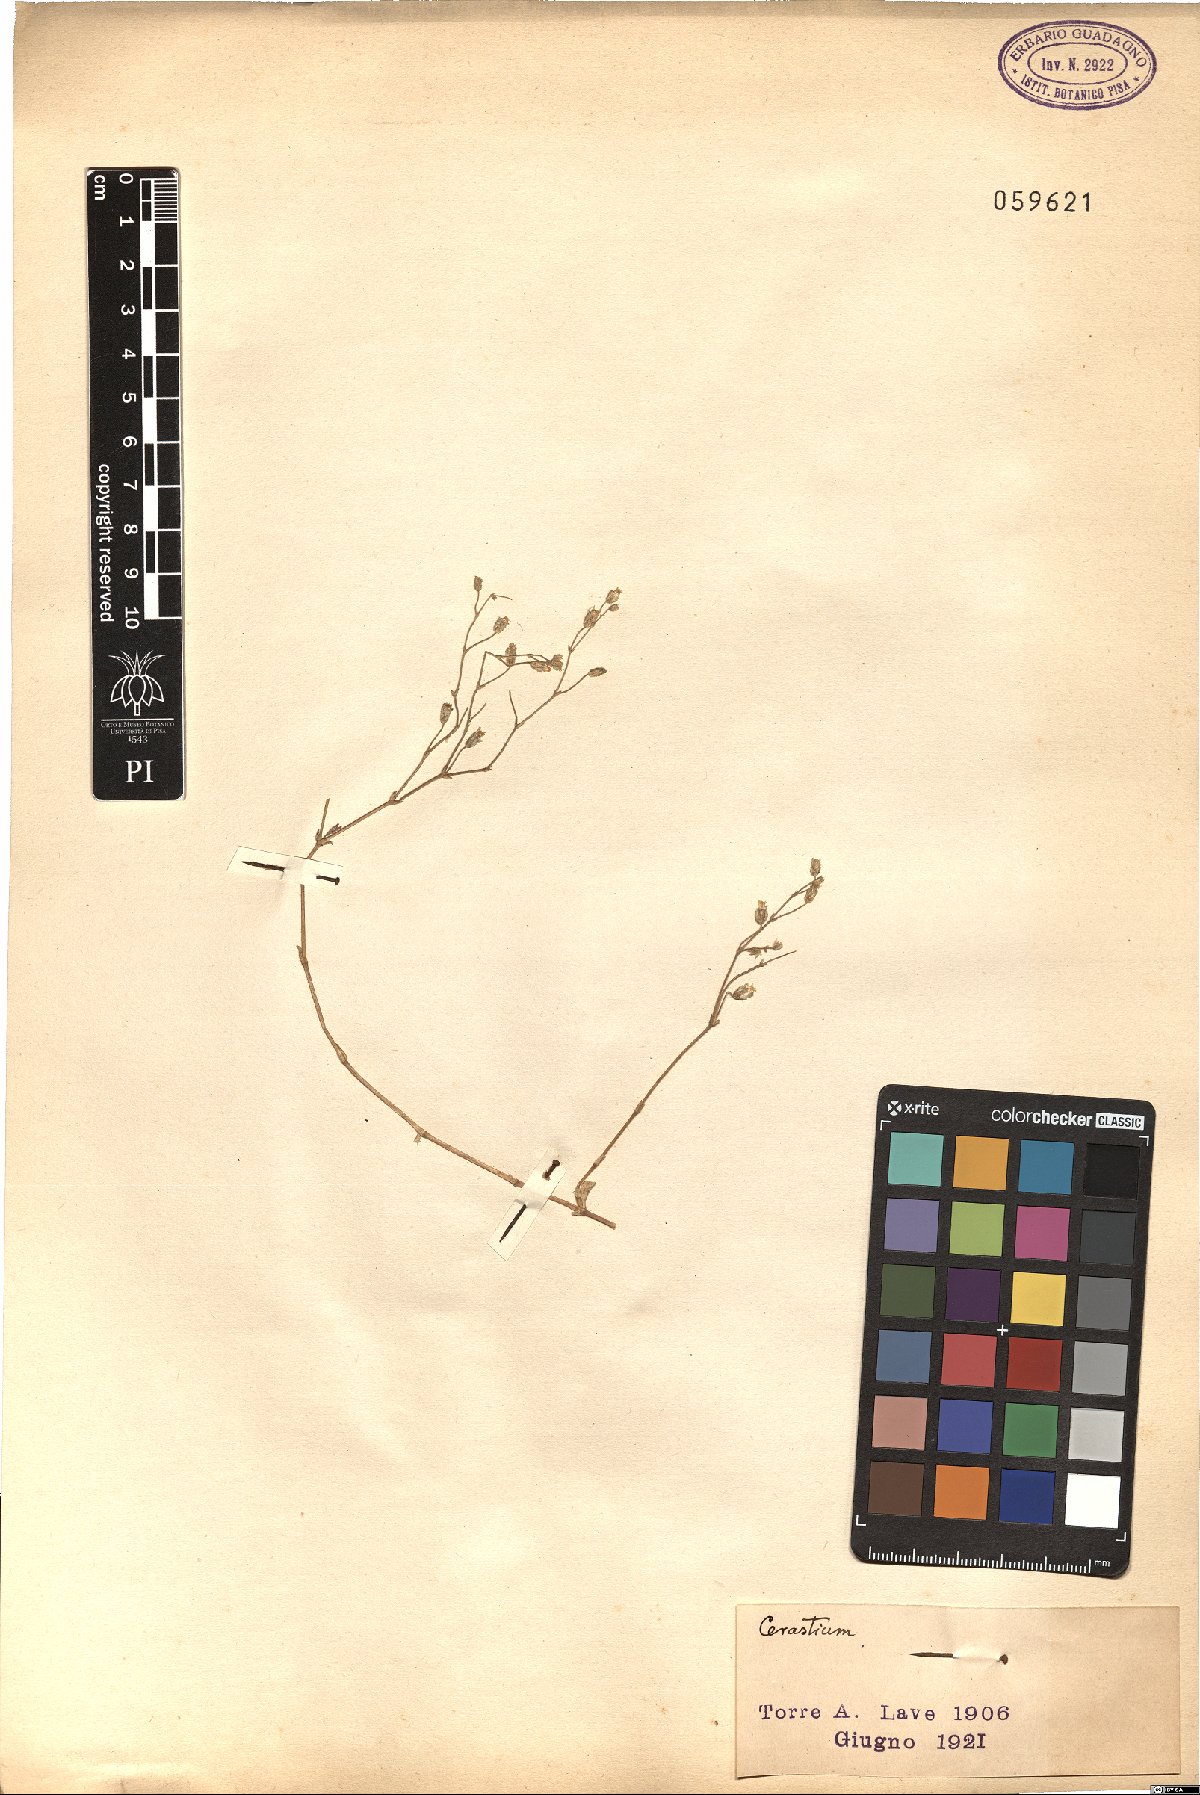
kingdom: Plantae
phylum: Tracheophyta
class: Magnoliopsida
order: Caryophyllales
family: Caryophyllaceae
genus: Cerastium
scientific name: Cerastium
